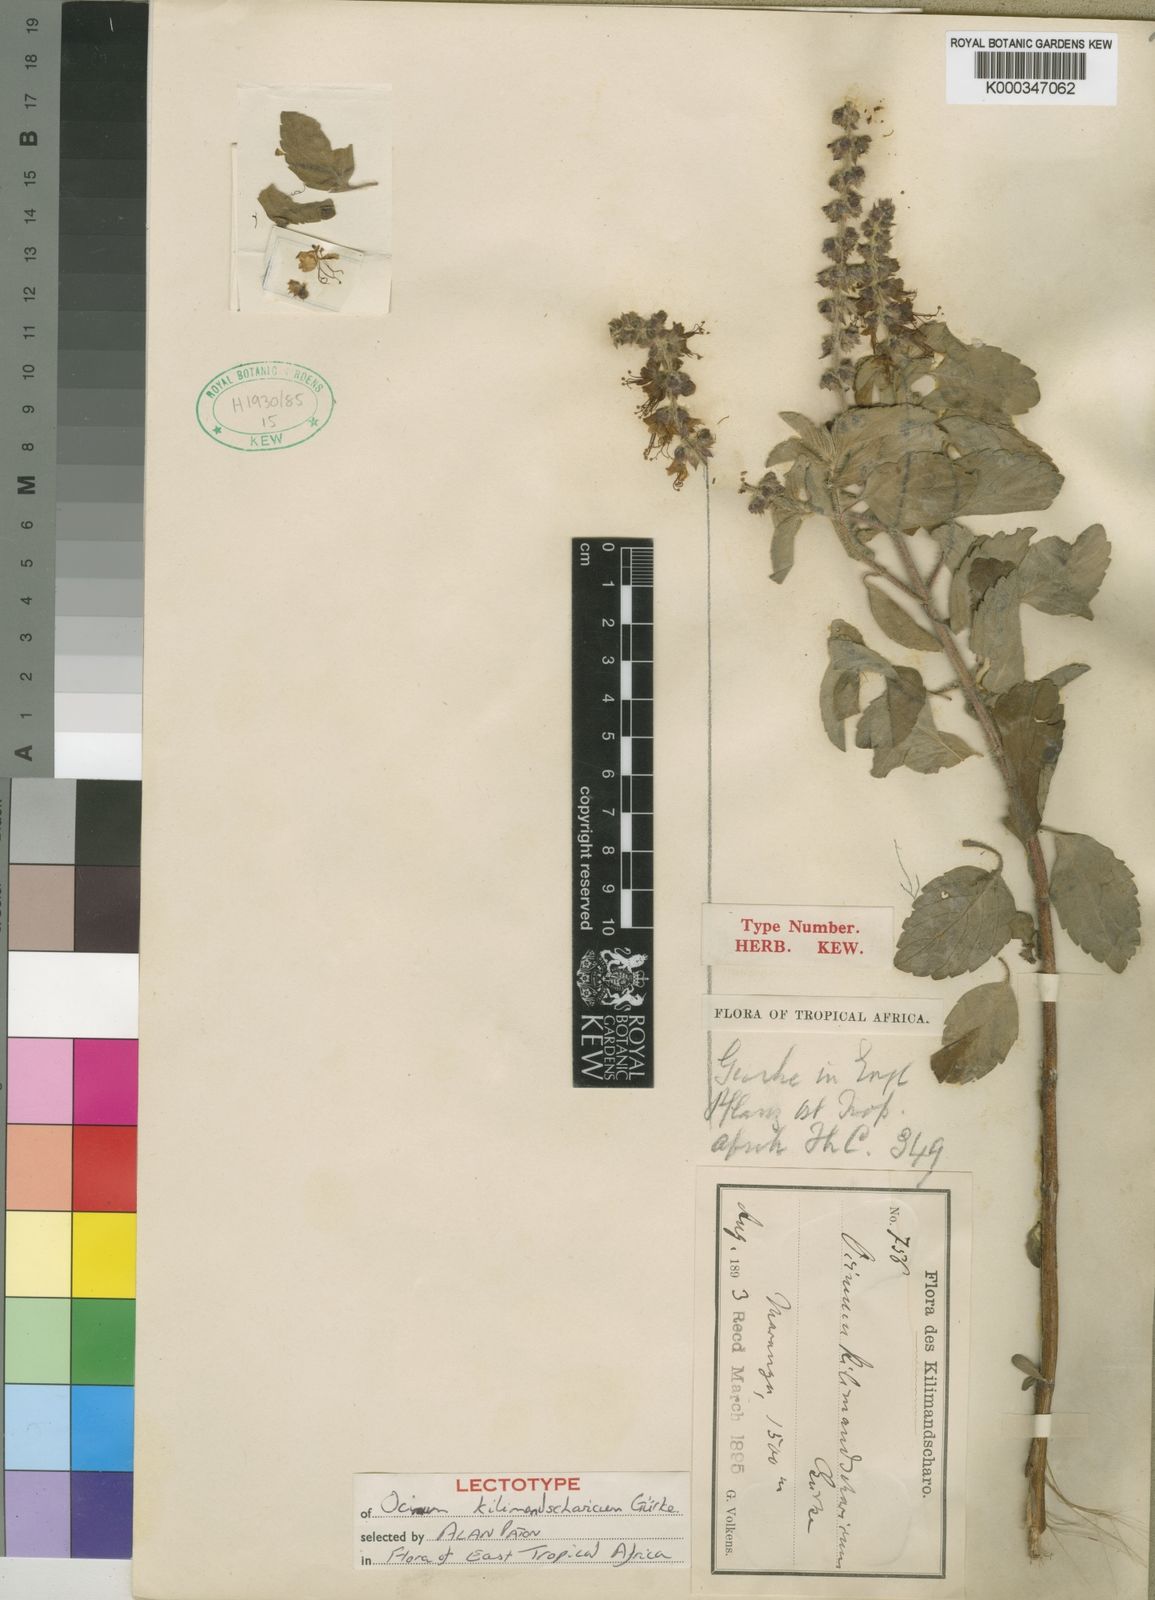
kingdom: Plantae
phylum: Tracheophyta
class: Magnoliopsida
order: Lamiales
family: Lamiaceae
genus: Ocimum
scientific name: Ocimum
